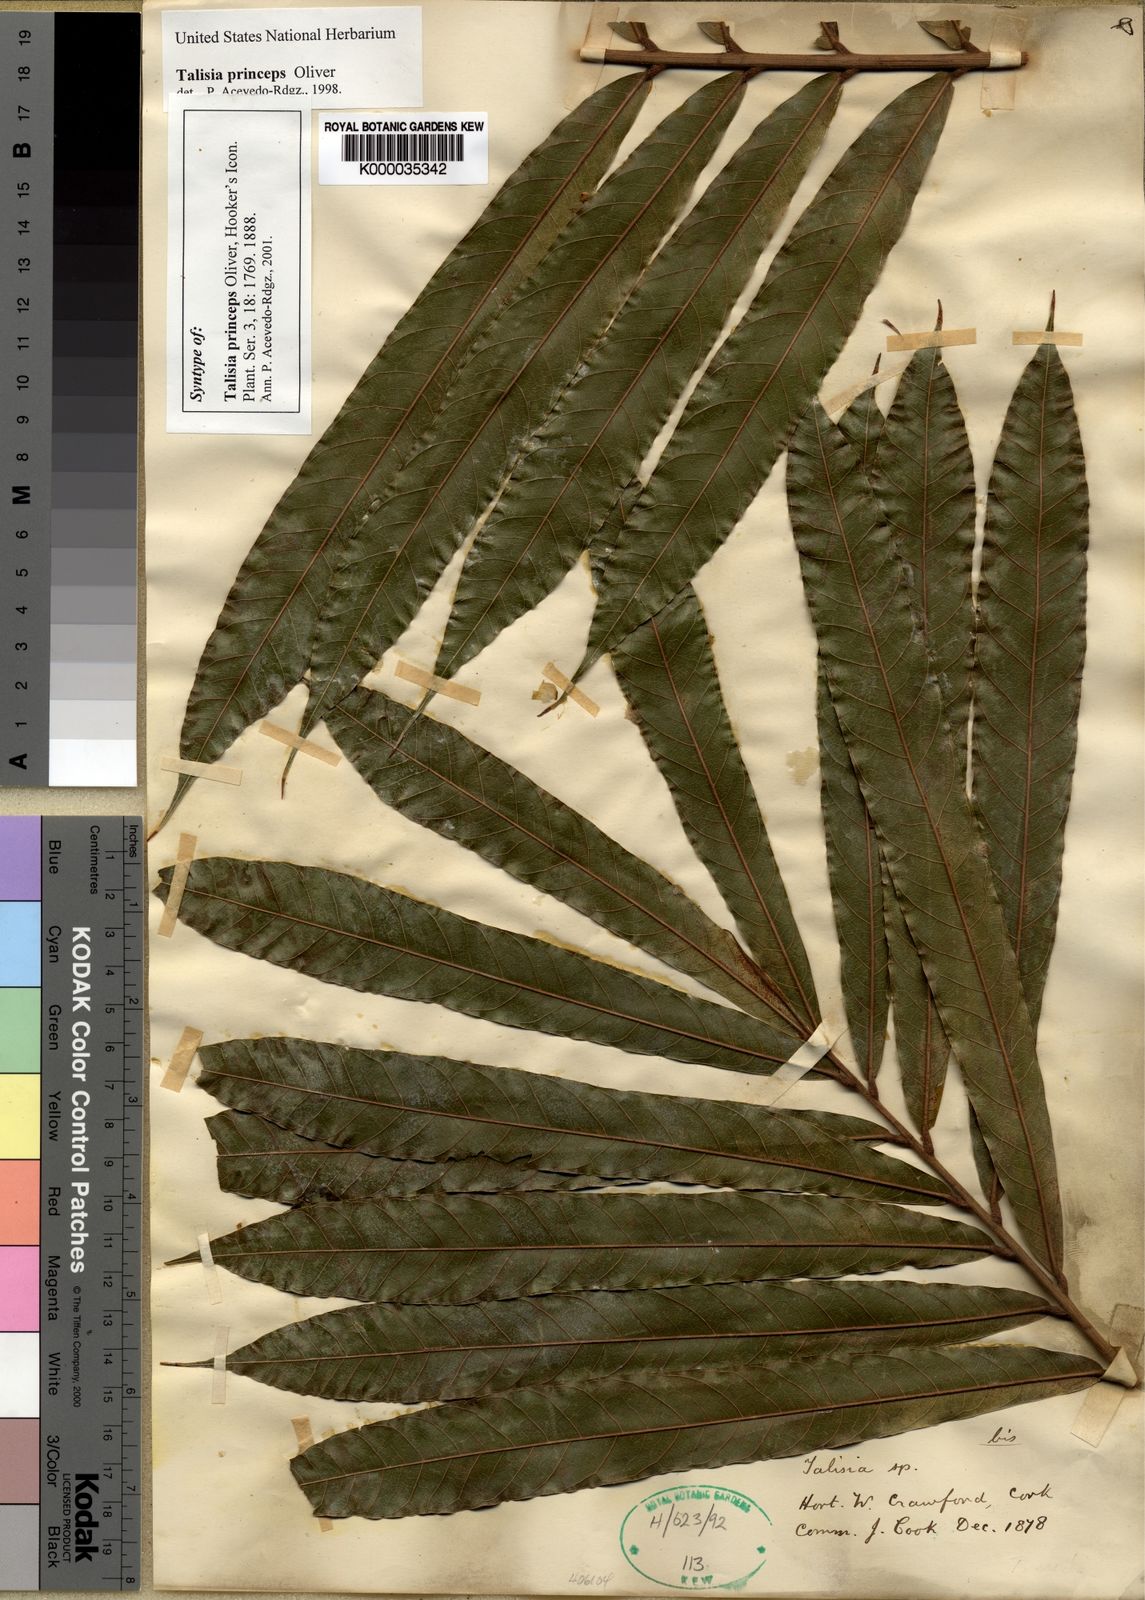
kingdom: Plantae
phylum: Tracheophyta
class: Magnoliopsida
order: Sapindales
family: Sapindaceae
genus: Talisia
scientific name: Talisia princeps
